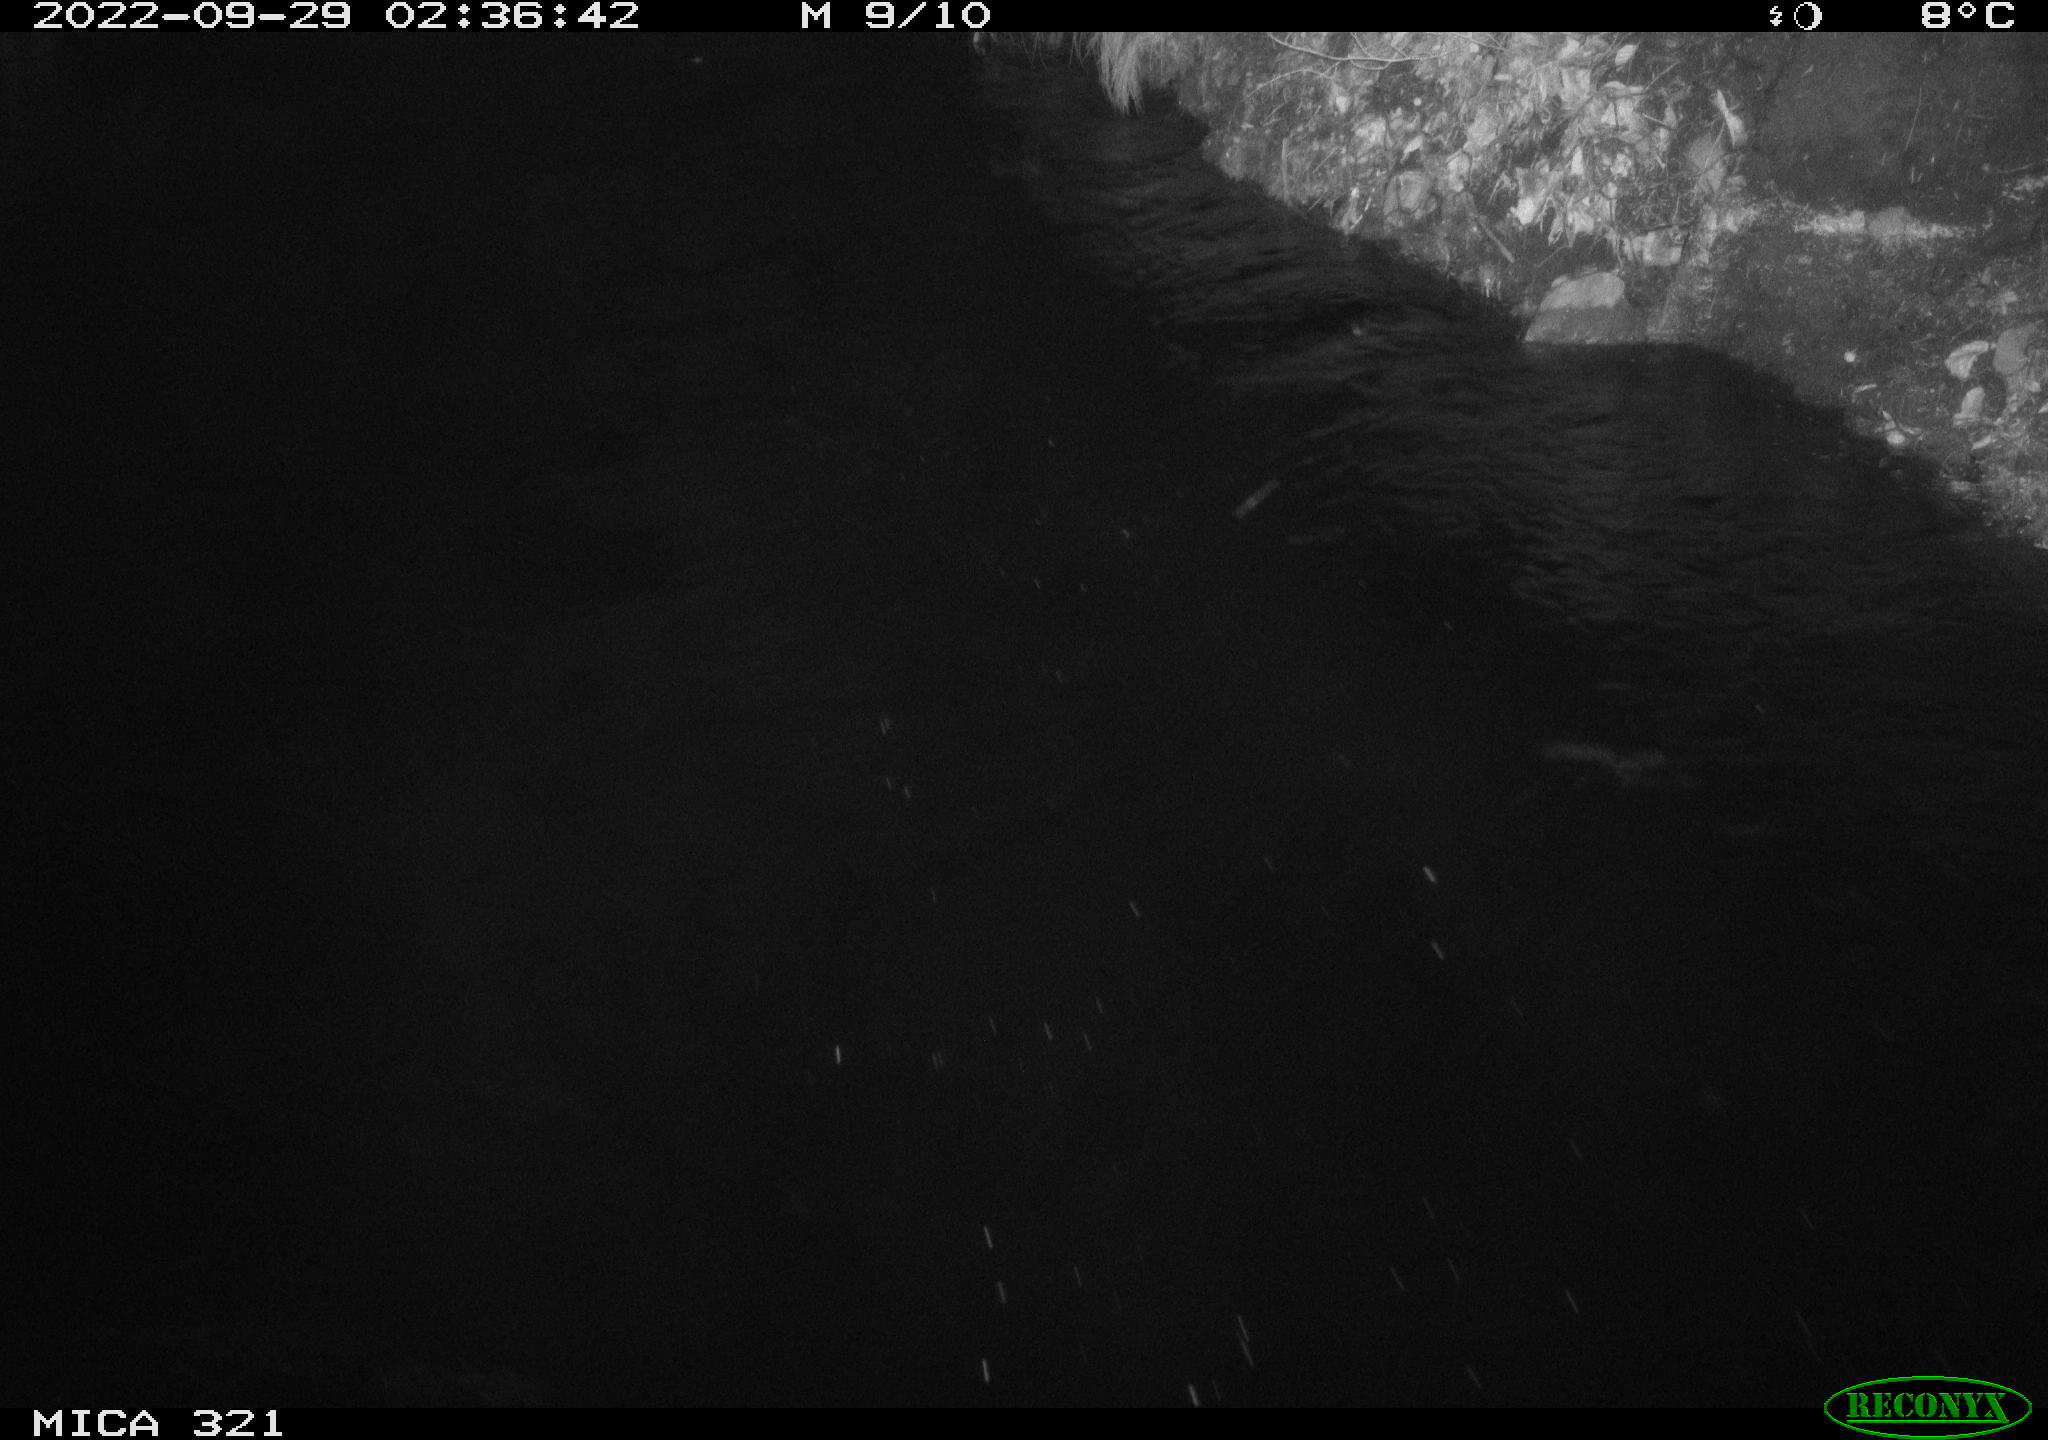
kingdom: Animalia
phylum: Chordata
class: Mammalia
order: Rodentia
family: Muridae
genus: Rattus
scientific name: Rattus norvegicus
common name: Brown rat
